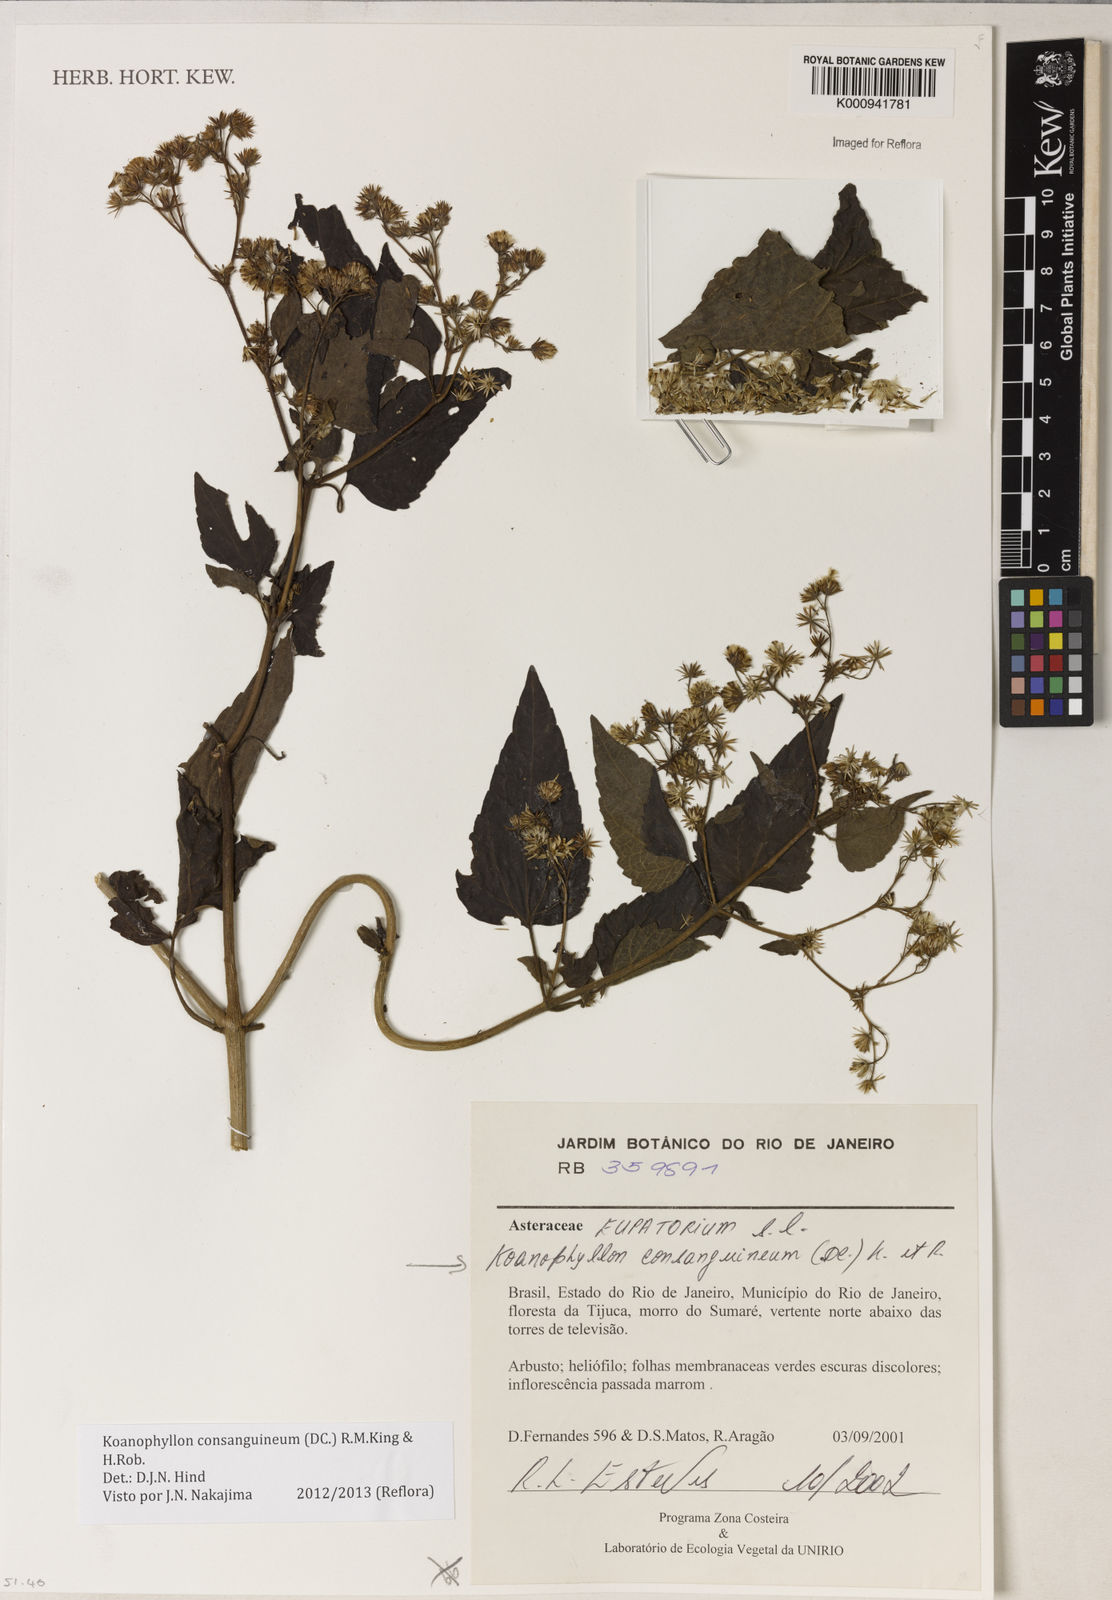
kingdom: Plantae
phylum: Tracheophyta
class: Magnoliopsida
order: Asterales
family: Asteraceae
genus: Koanophyllon
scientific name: Koanophyllon consanguineum
